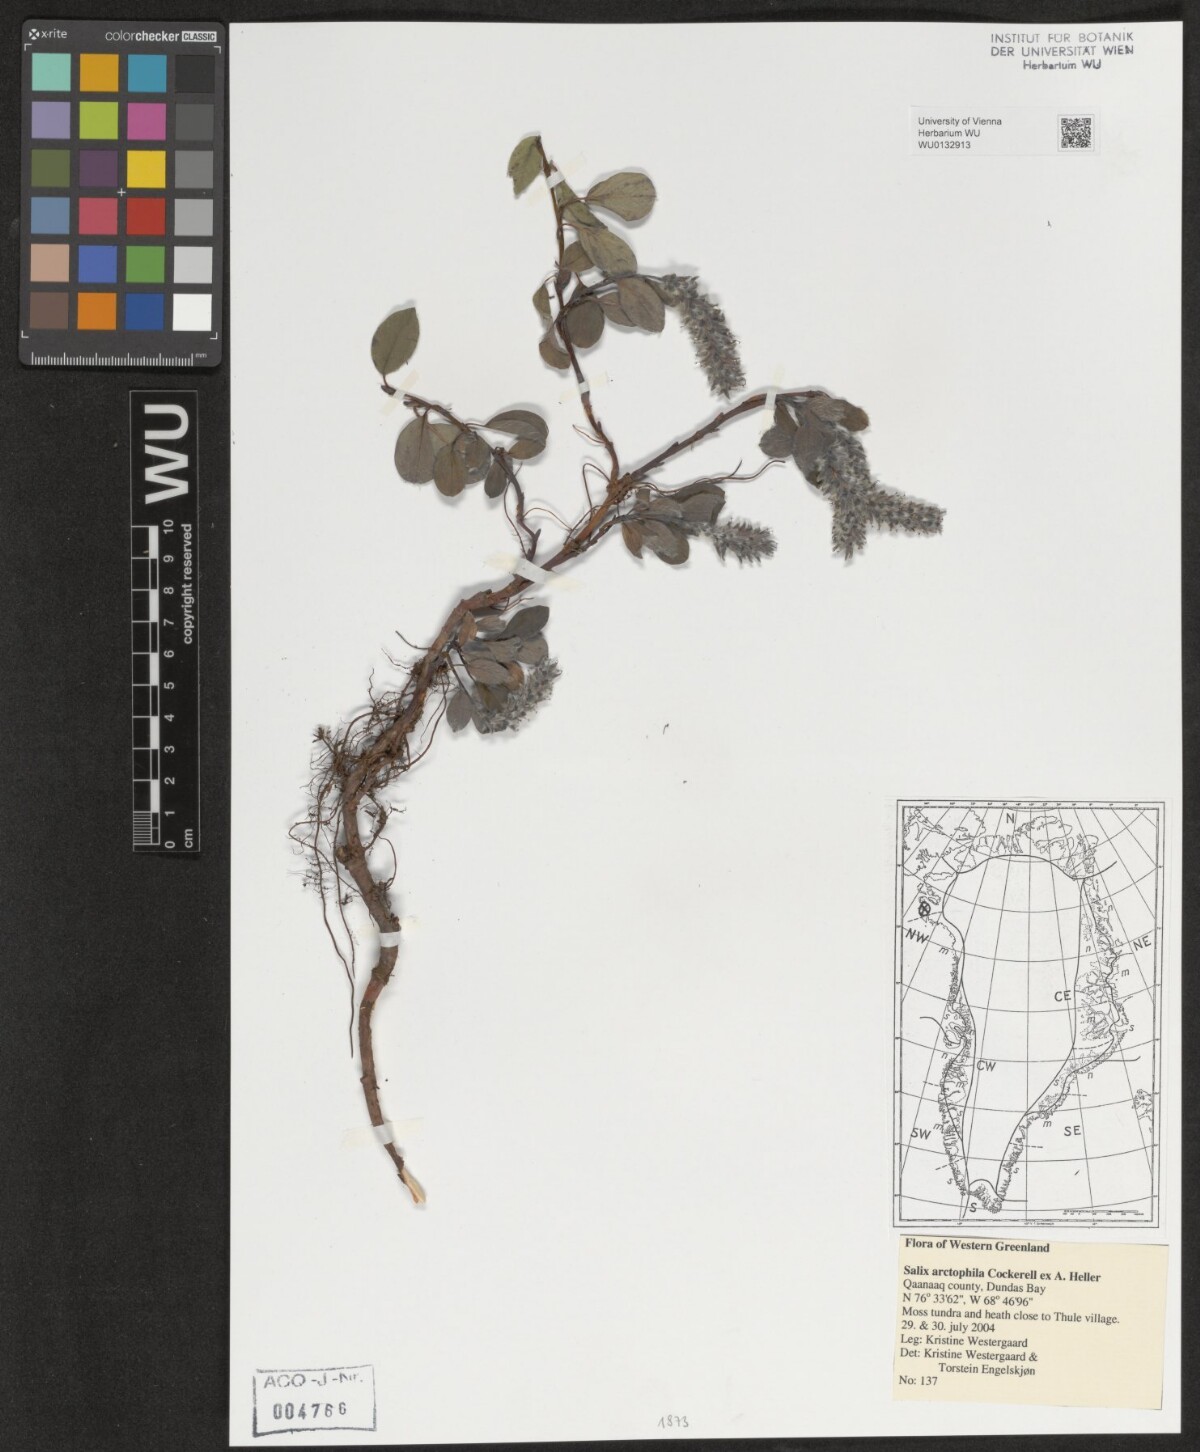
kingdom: Plantae
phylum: Tracheophyta
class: Magnoliopsida
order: Malpighiales
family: Salicaceae
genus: Salix
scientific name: Salix arctophila
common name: Greenland willow
